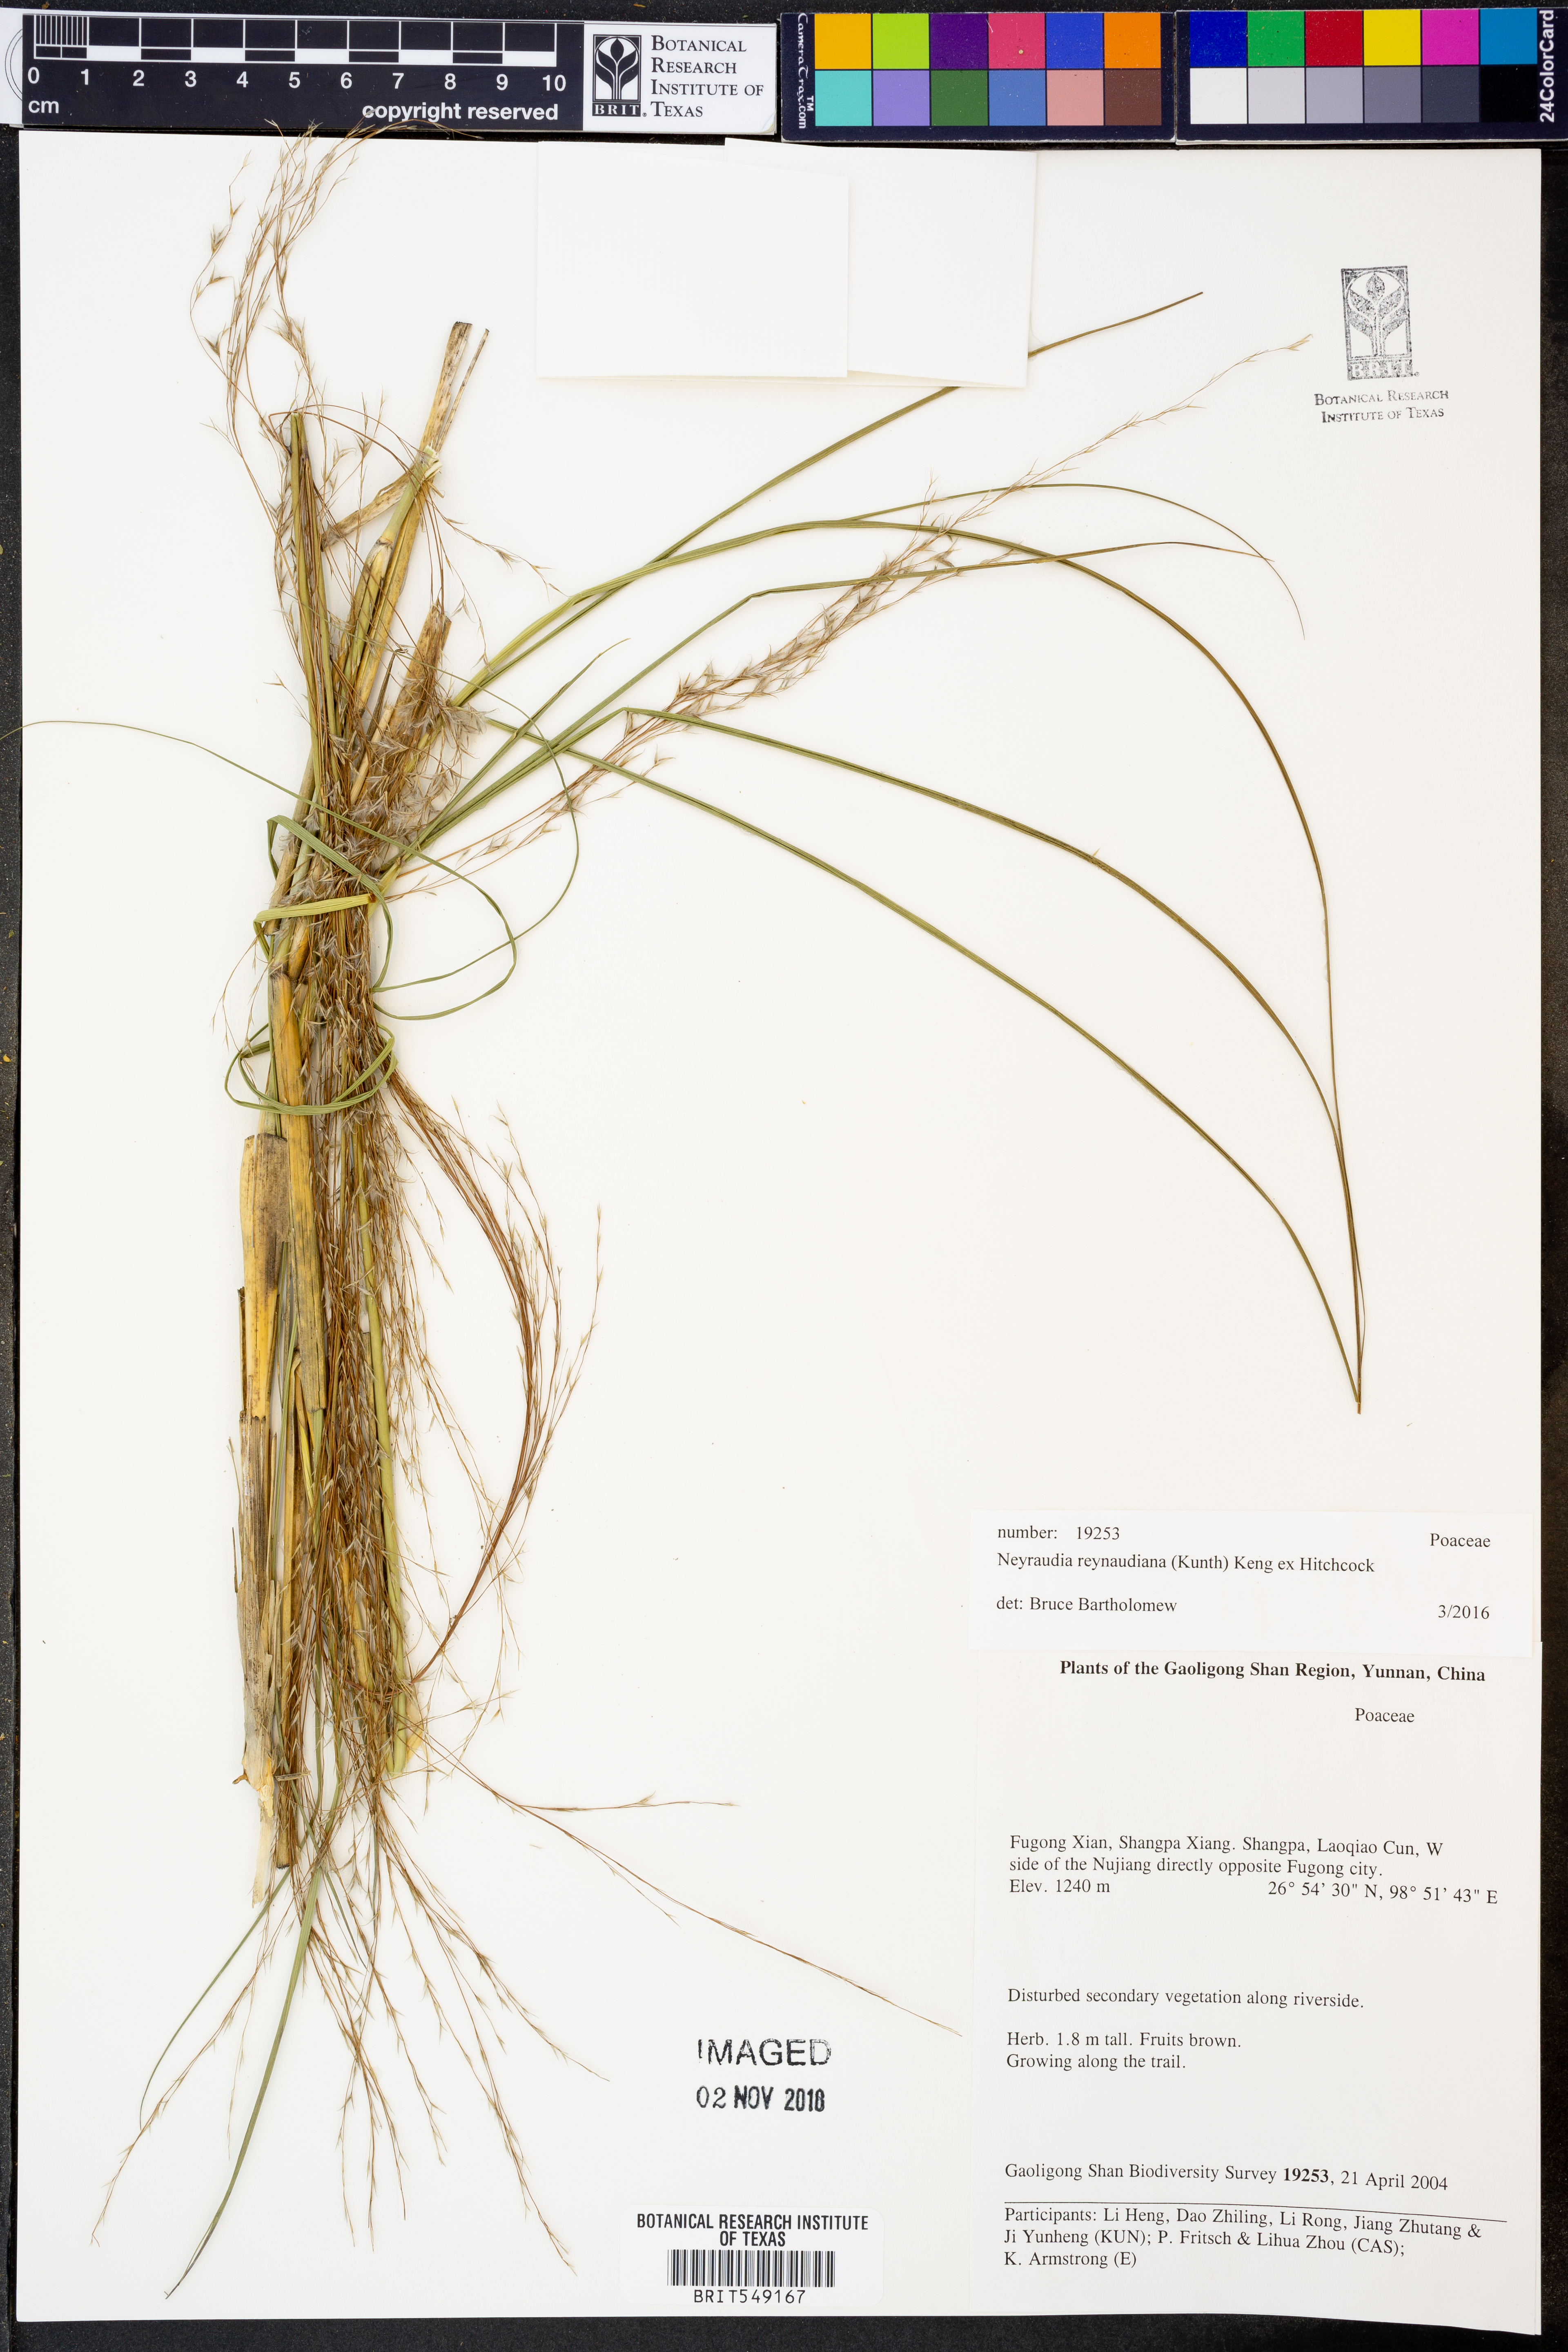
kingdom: Plantae
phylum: Tracheophyta
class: Liliopsida
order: Poales
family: Poaceae
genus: Neyraudia
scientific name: Neyraudia reynaudiana
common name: Silkreed
